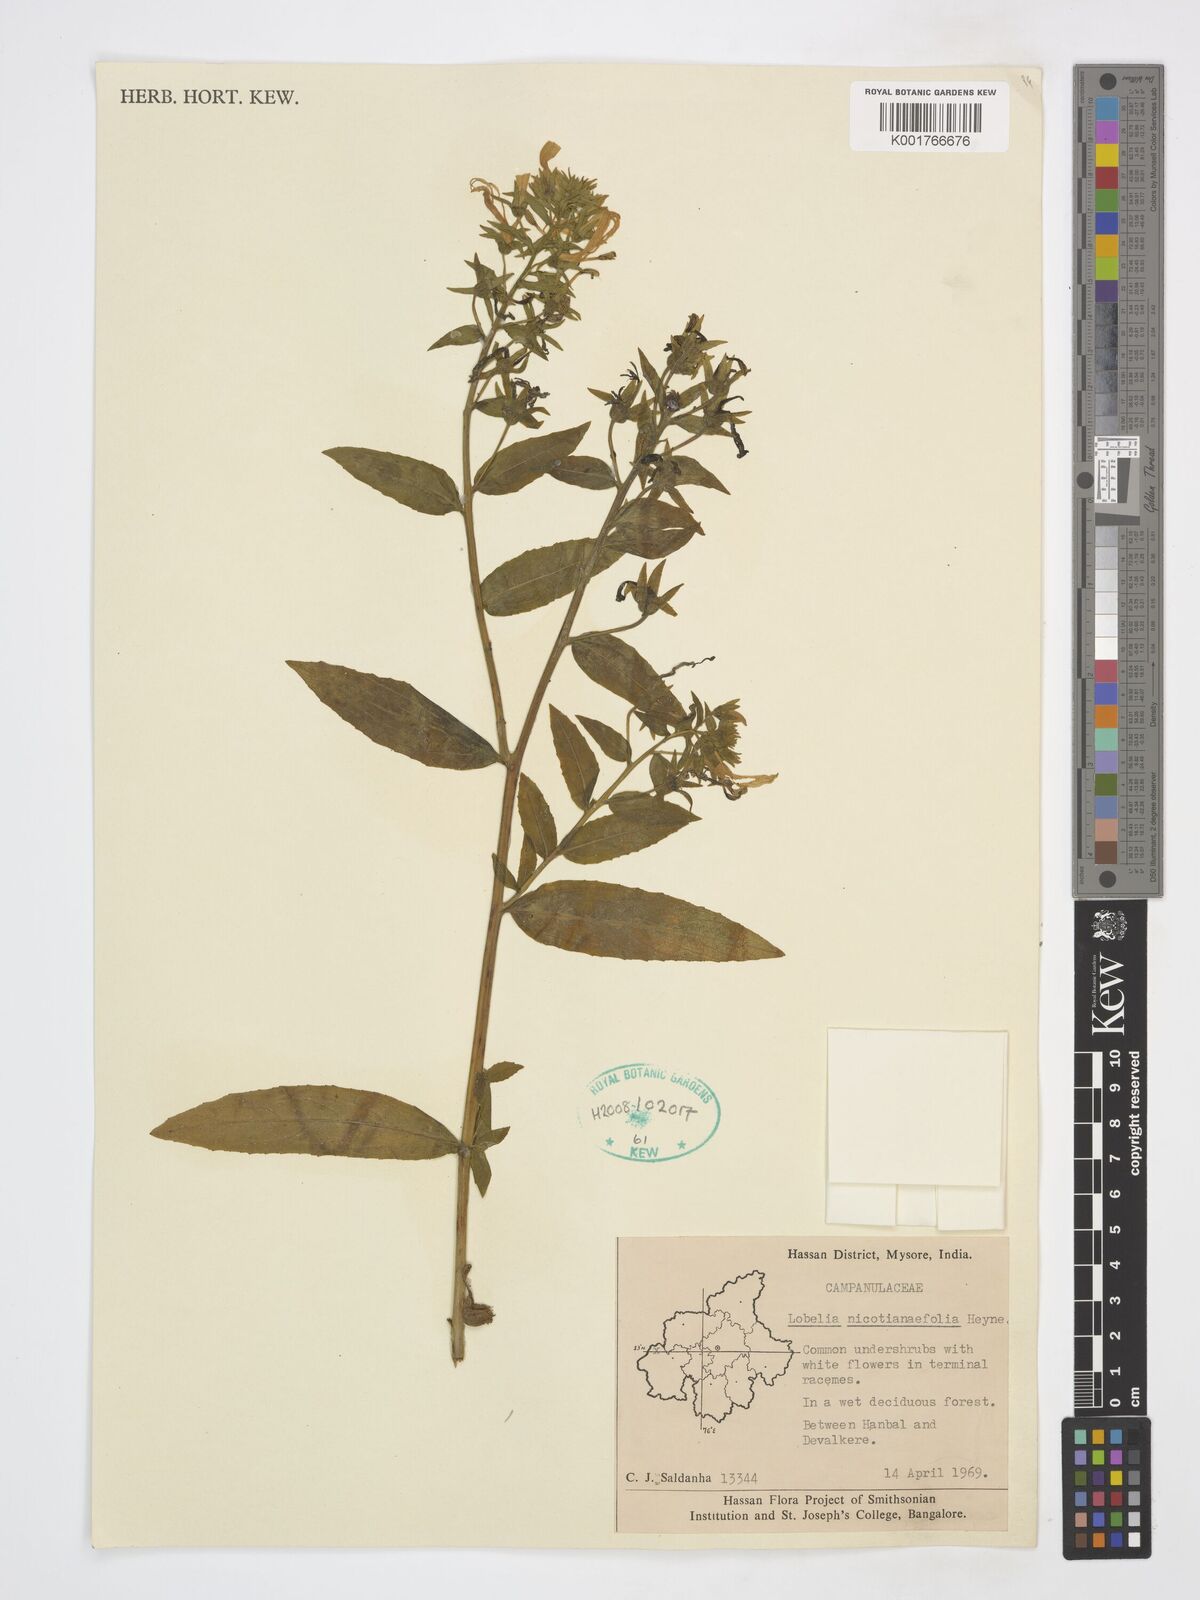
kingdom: Plantae
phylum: Tracheophyta
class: Magnoliopsida
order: Asterales
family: Campanulaceae
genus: Lobelia
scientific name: Lobelia nicotianifolia
